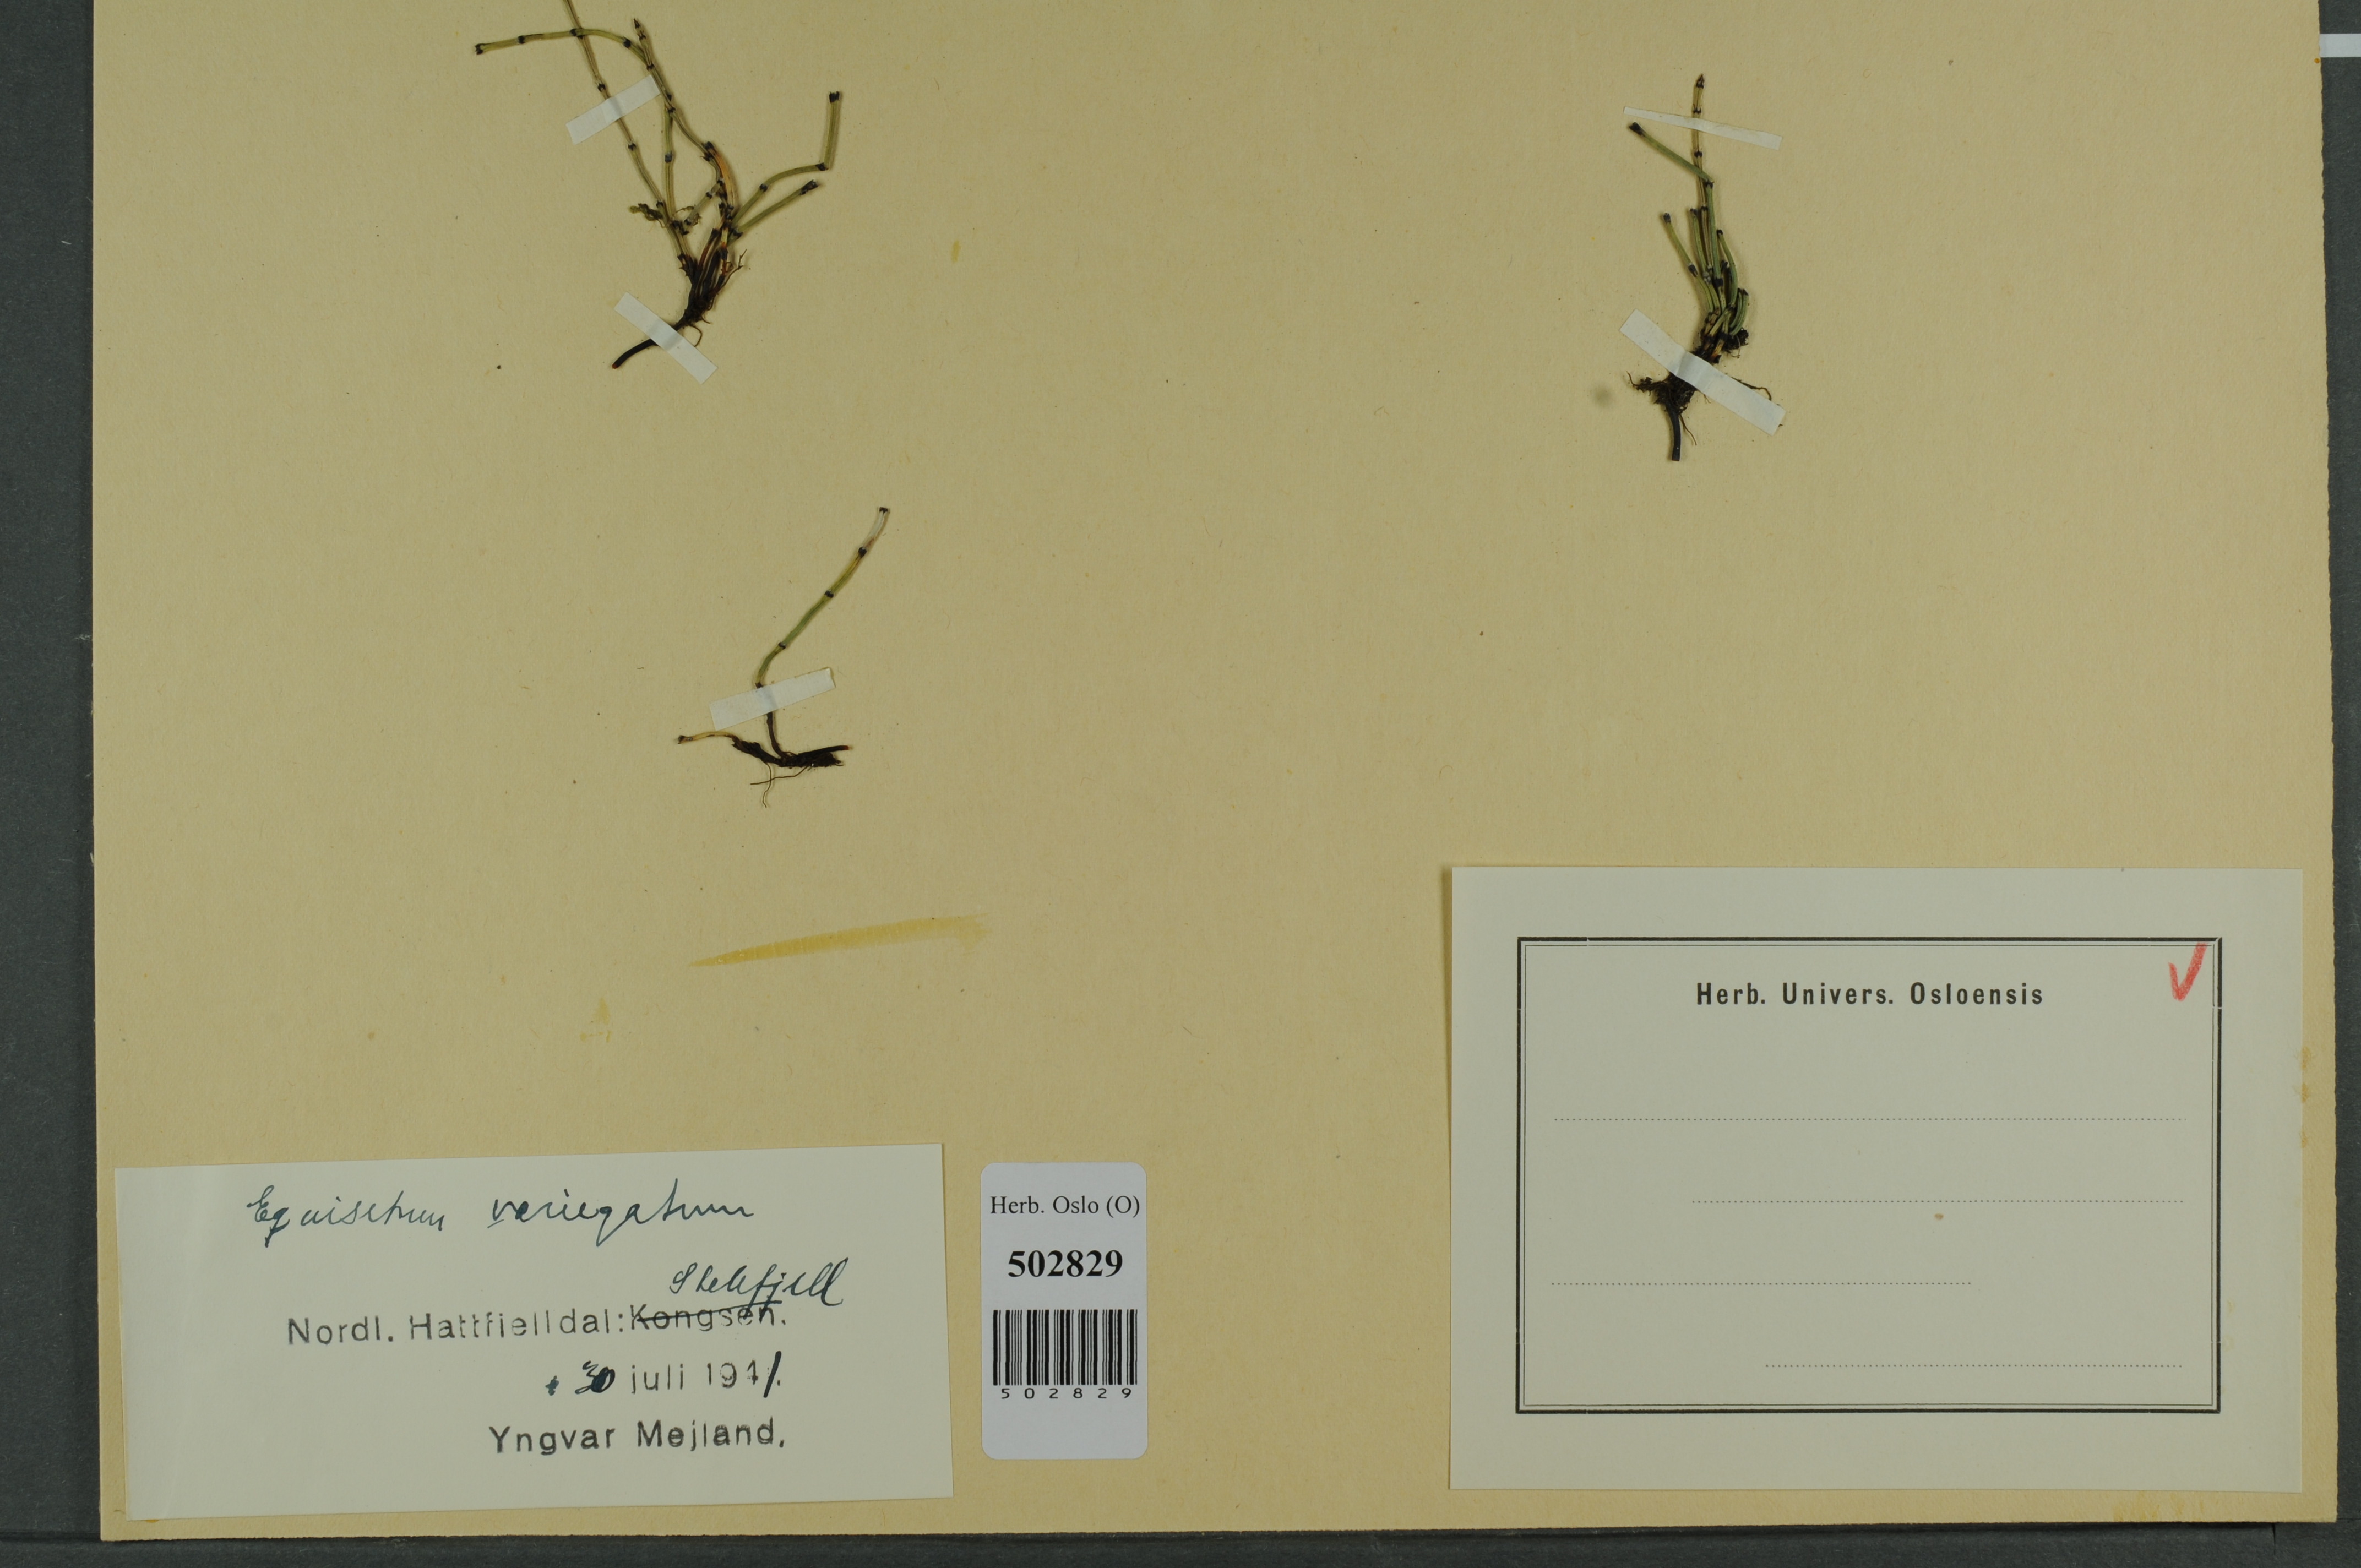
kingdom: Plantae
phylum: Tracheophyta
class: Polypodiopsida
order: Equisetales
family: Equisetaceae
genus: Equisetum
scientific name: Equisetum variegatum
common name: Variegated horsetail
